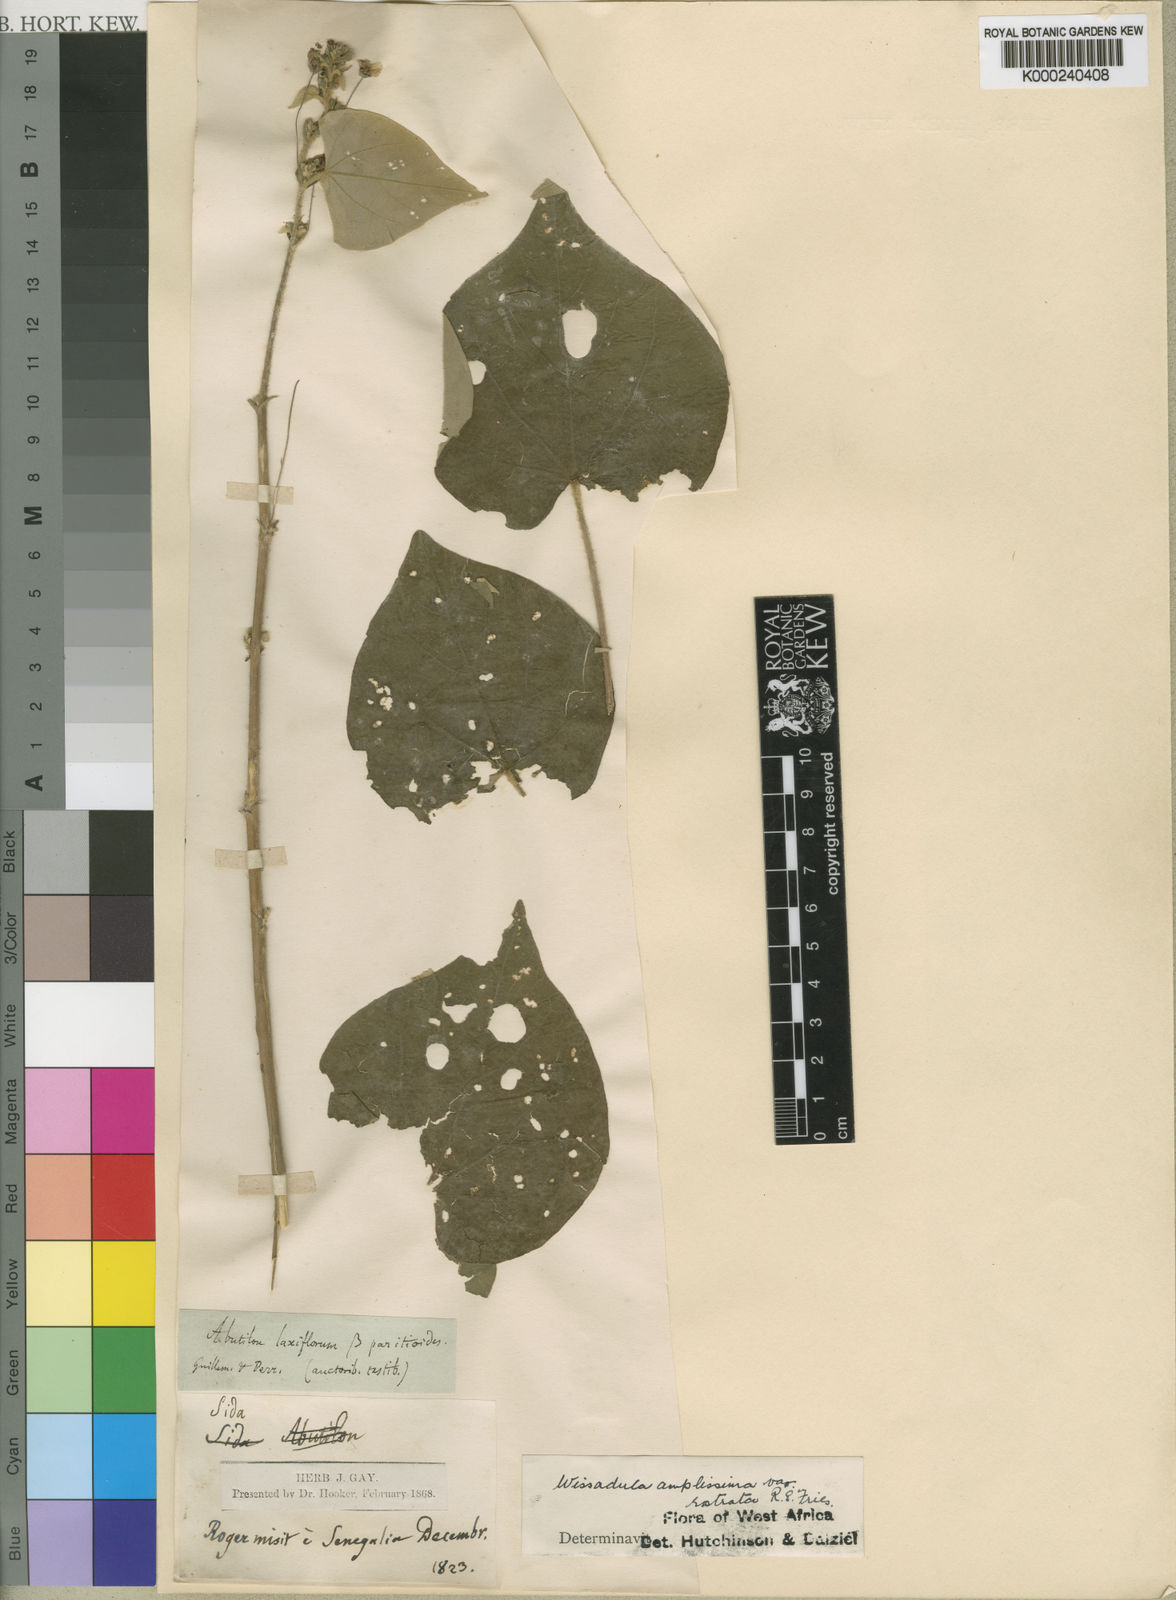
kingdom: Plantae
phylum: Tracheophyta
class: Magnoliopsida
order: Malvales
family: Malvaceae
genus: Wissadula
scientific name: Wissadula amplissima
